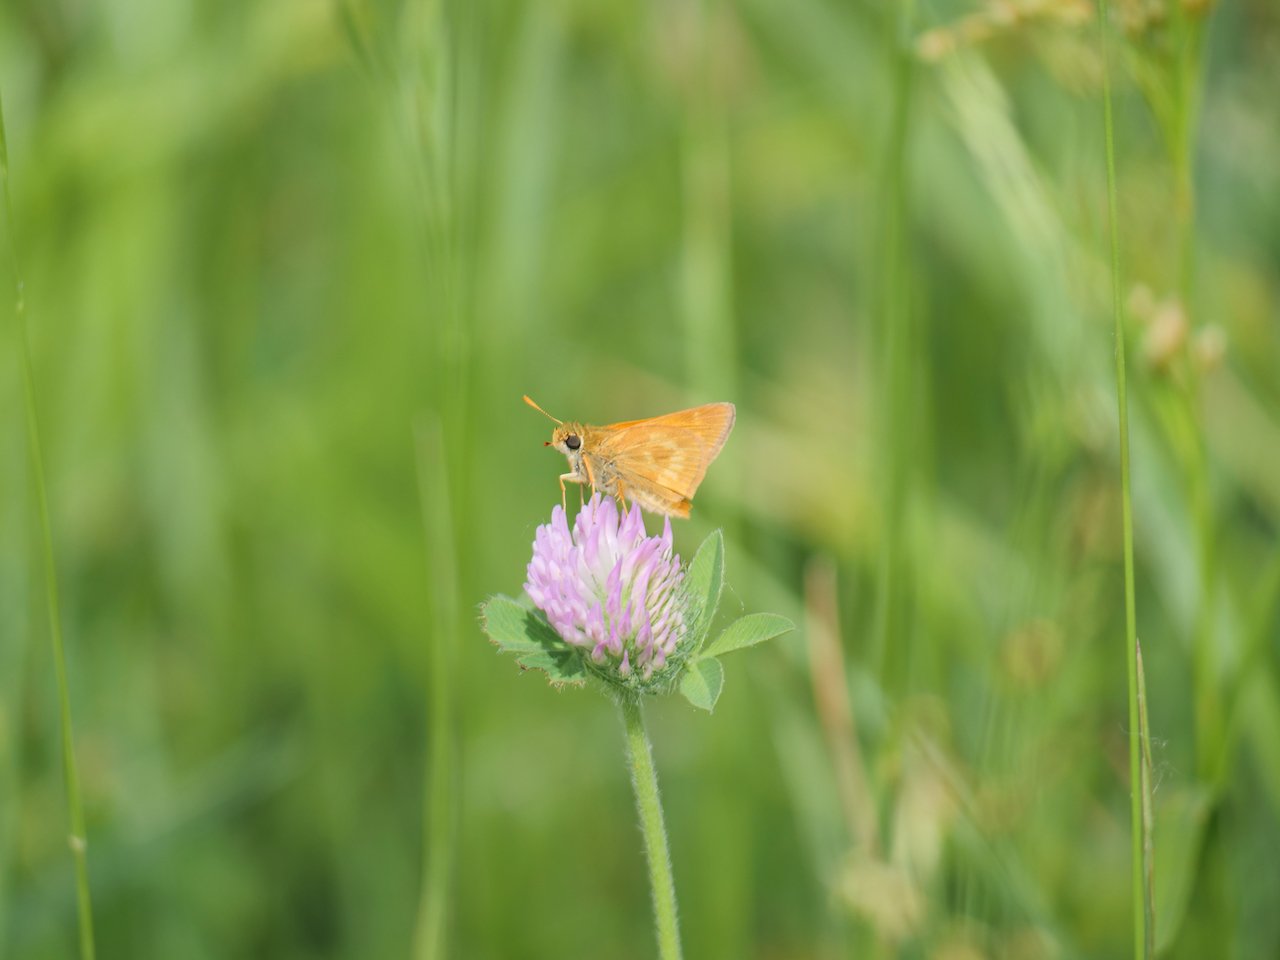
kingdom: Animalia
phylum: Arthropoda
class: Insecta
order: Lepidoptera
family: Hesperiidae
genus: Polites
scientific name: Polites
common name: Long Dash Skipper
